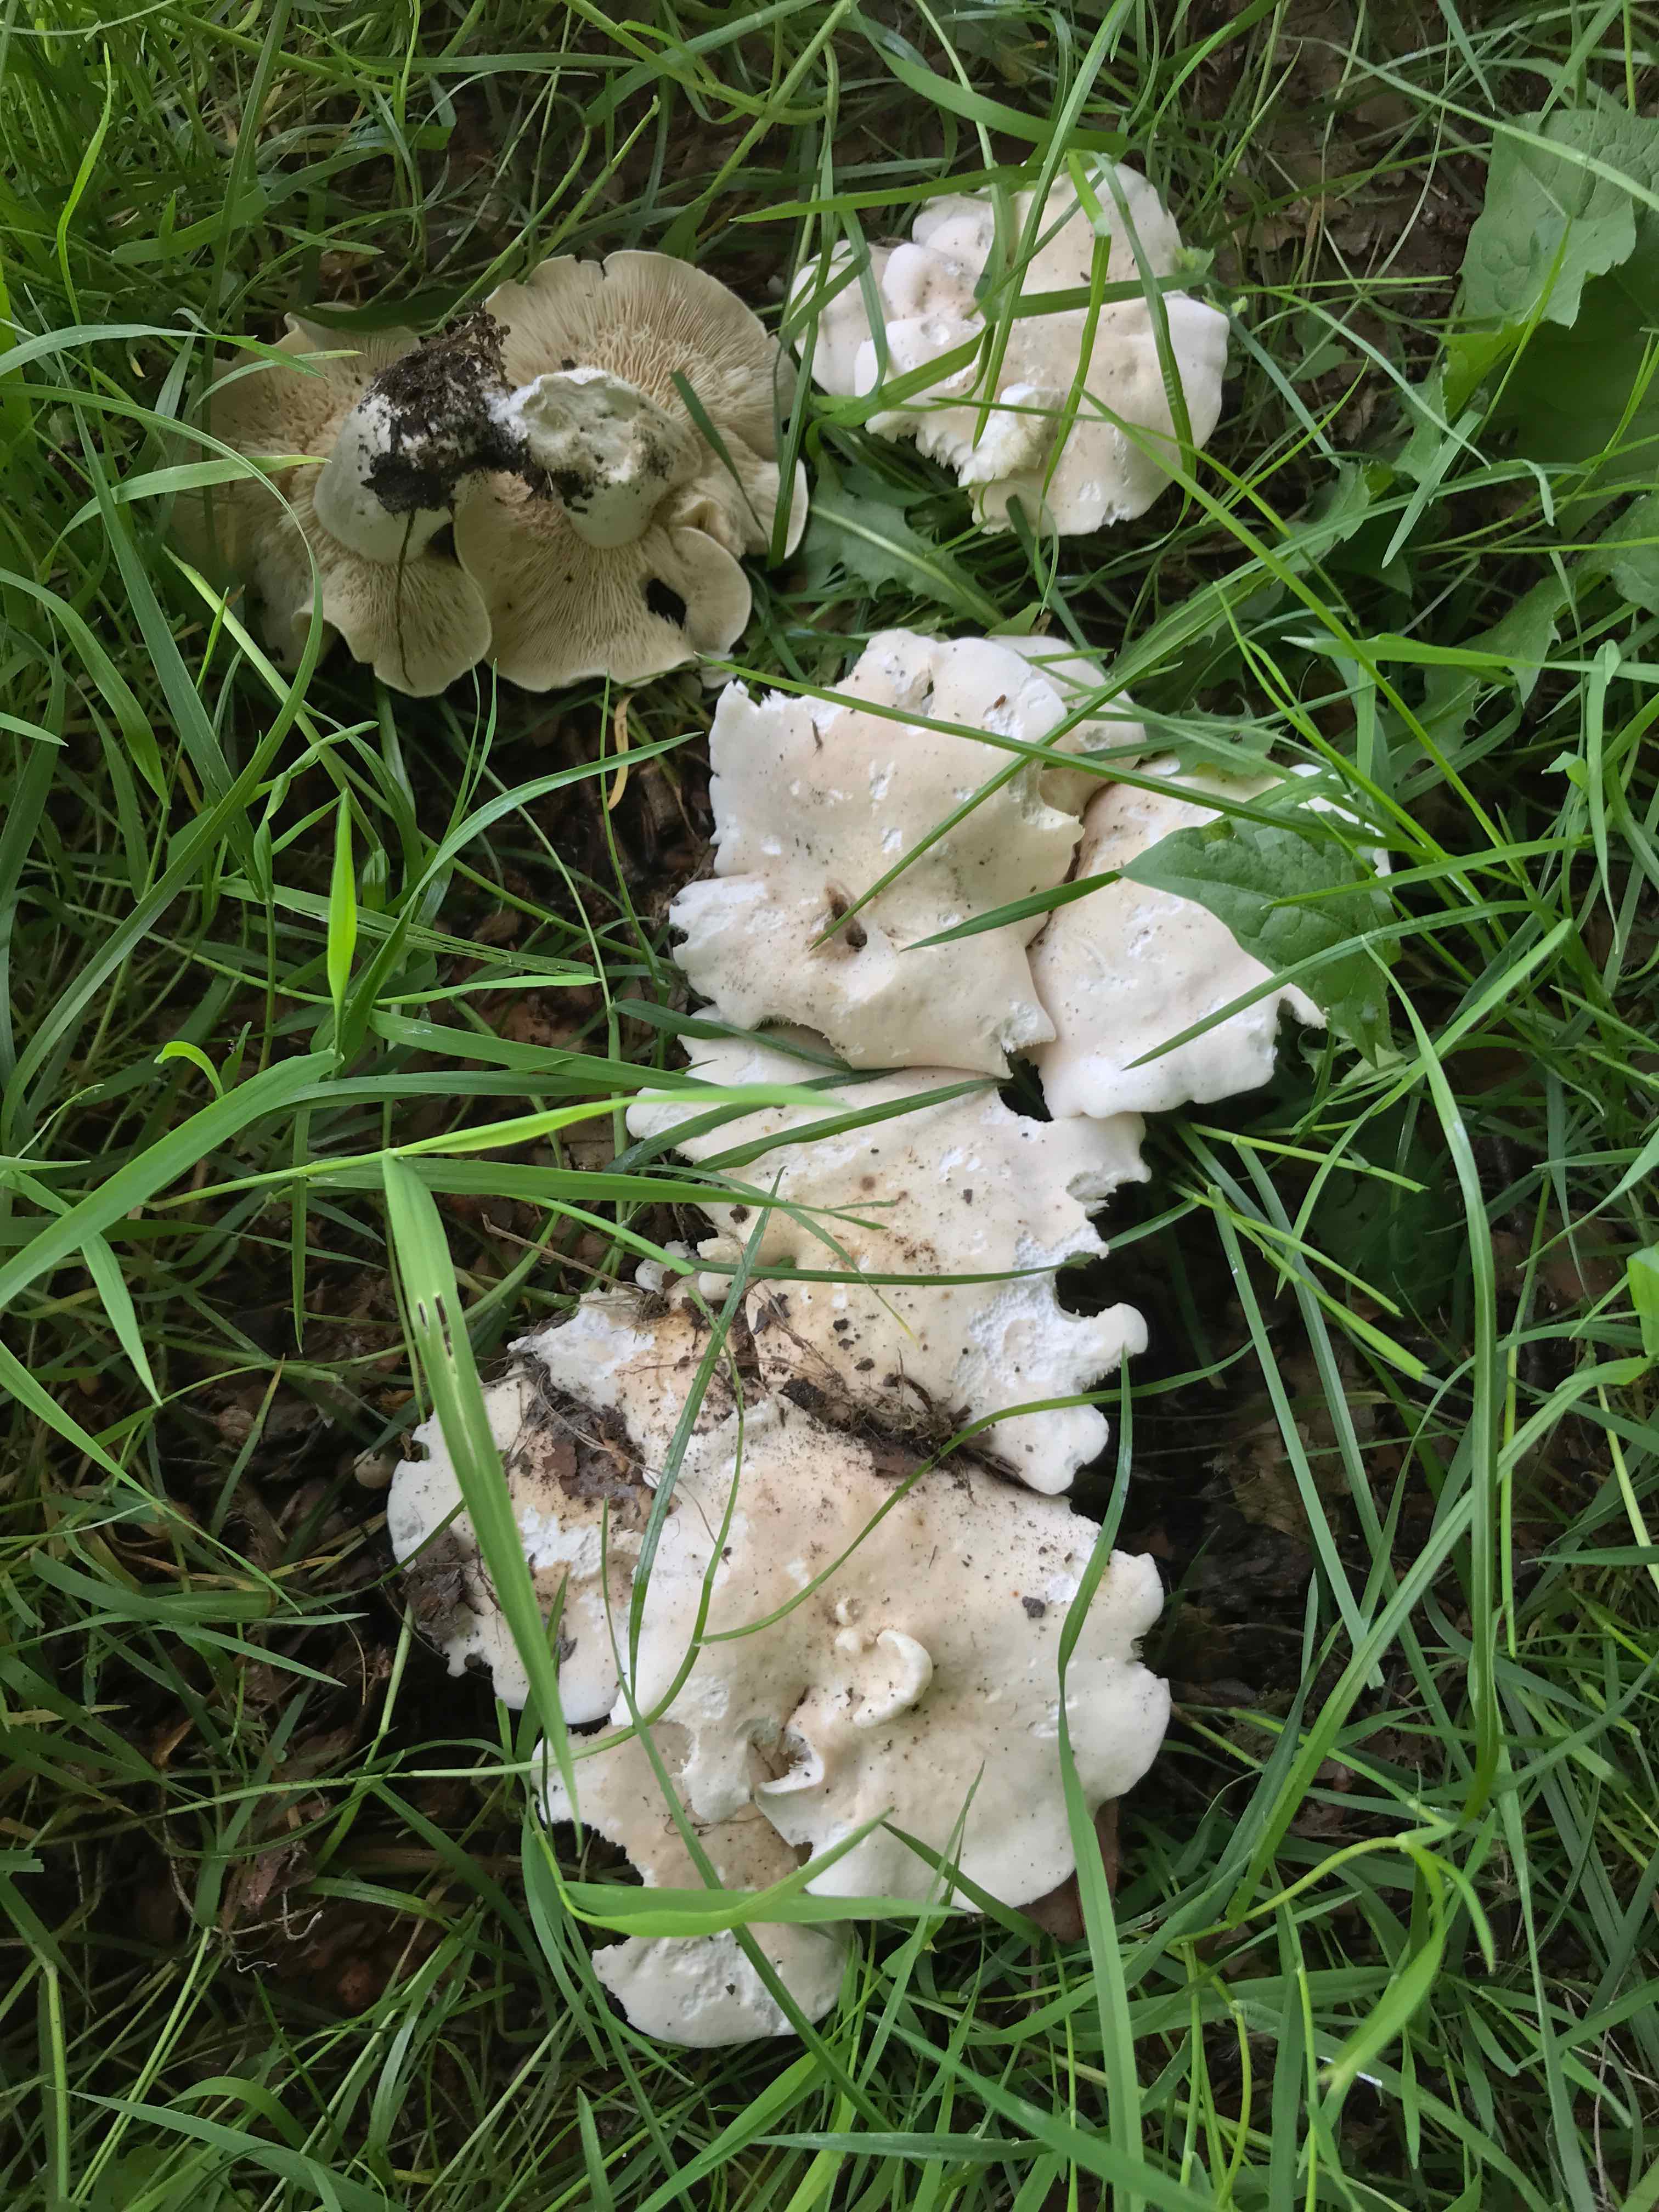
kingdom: Fungi
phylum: Basidiomycota
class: Agaricomycetes
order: Agaricales
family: Lyophyllaceae
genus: Calocybe
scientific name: Calocybe gambosa
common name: vårmusseron
